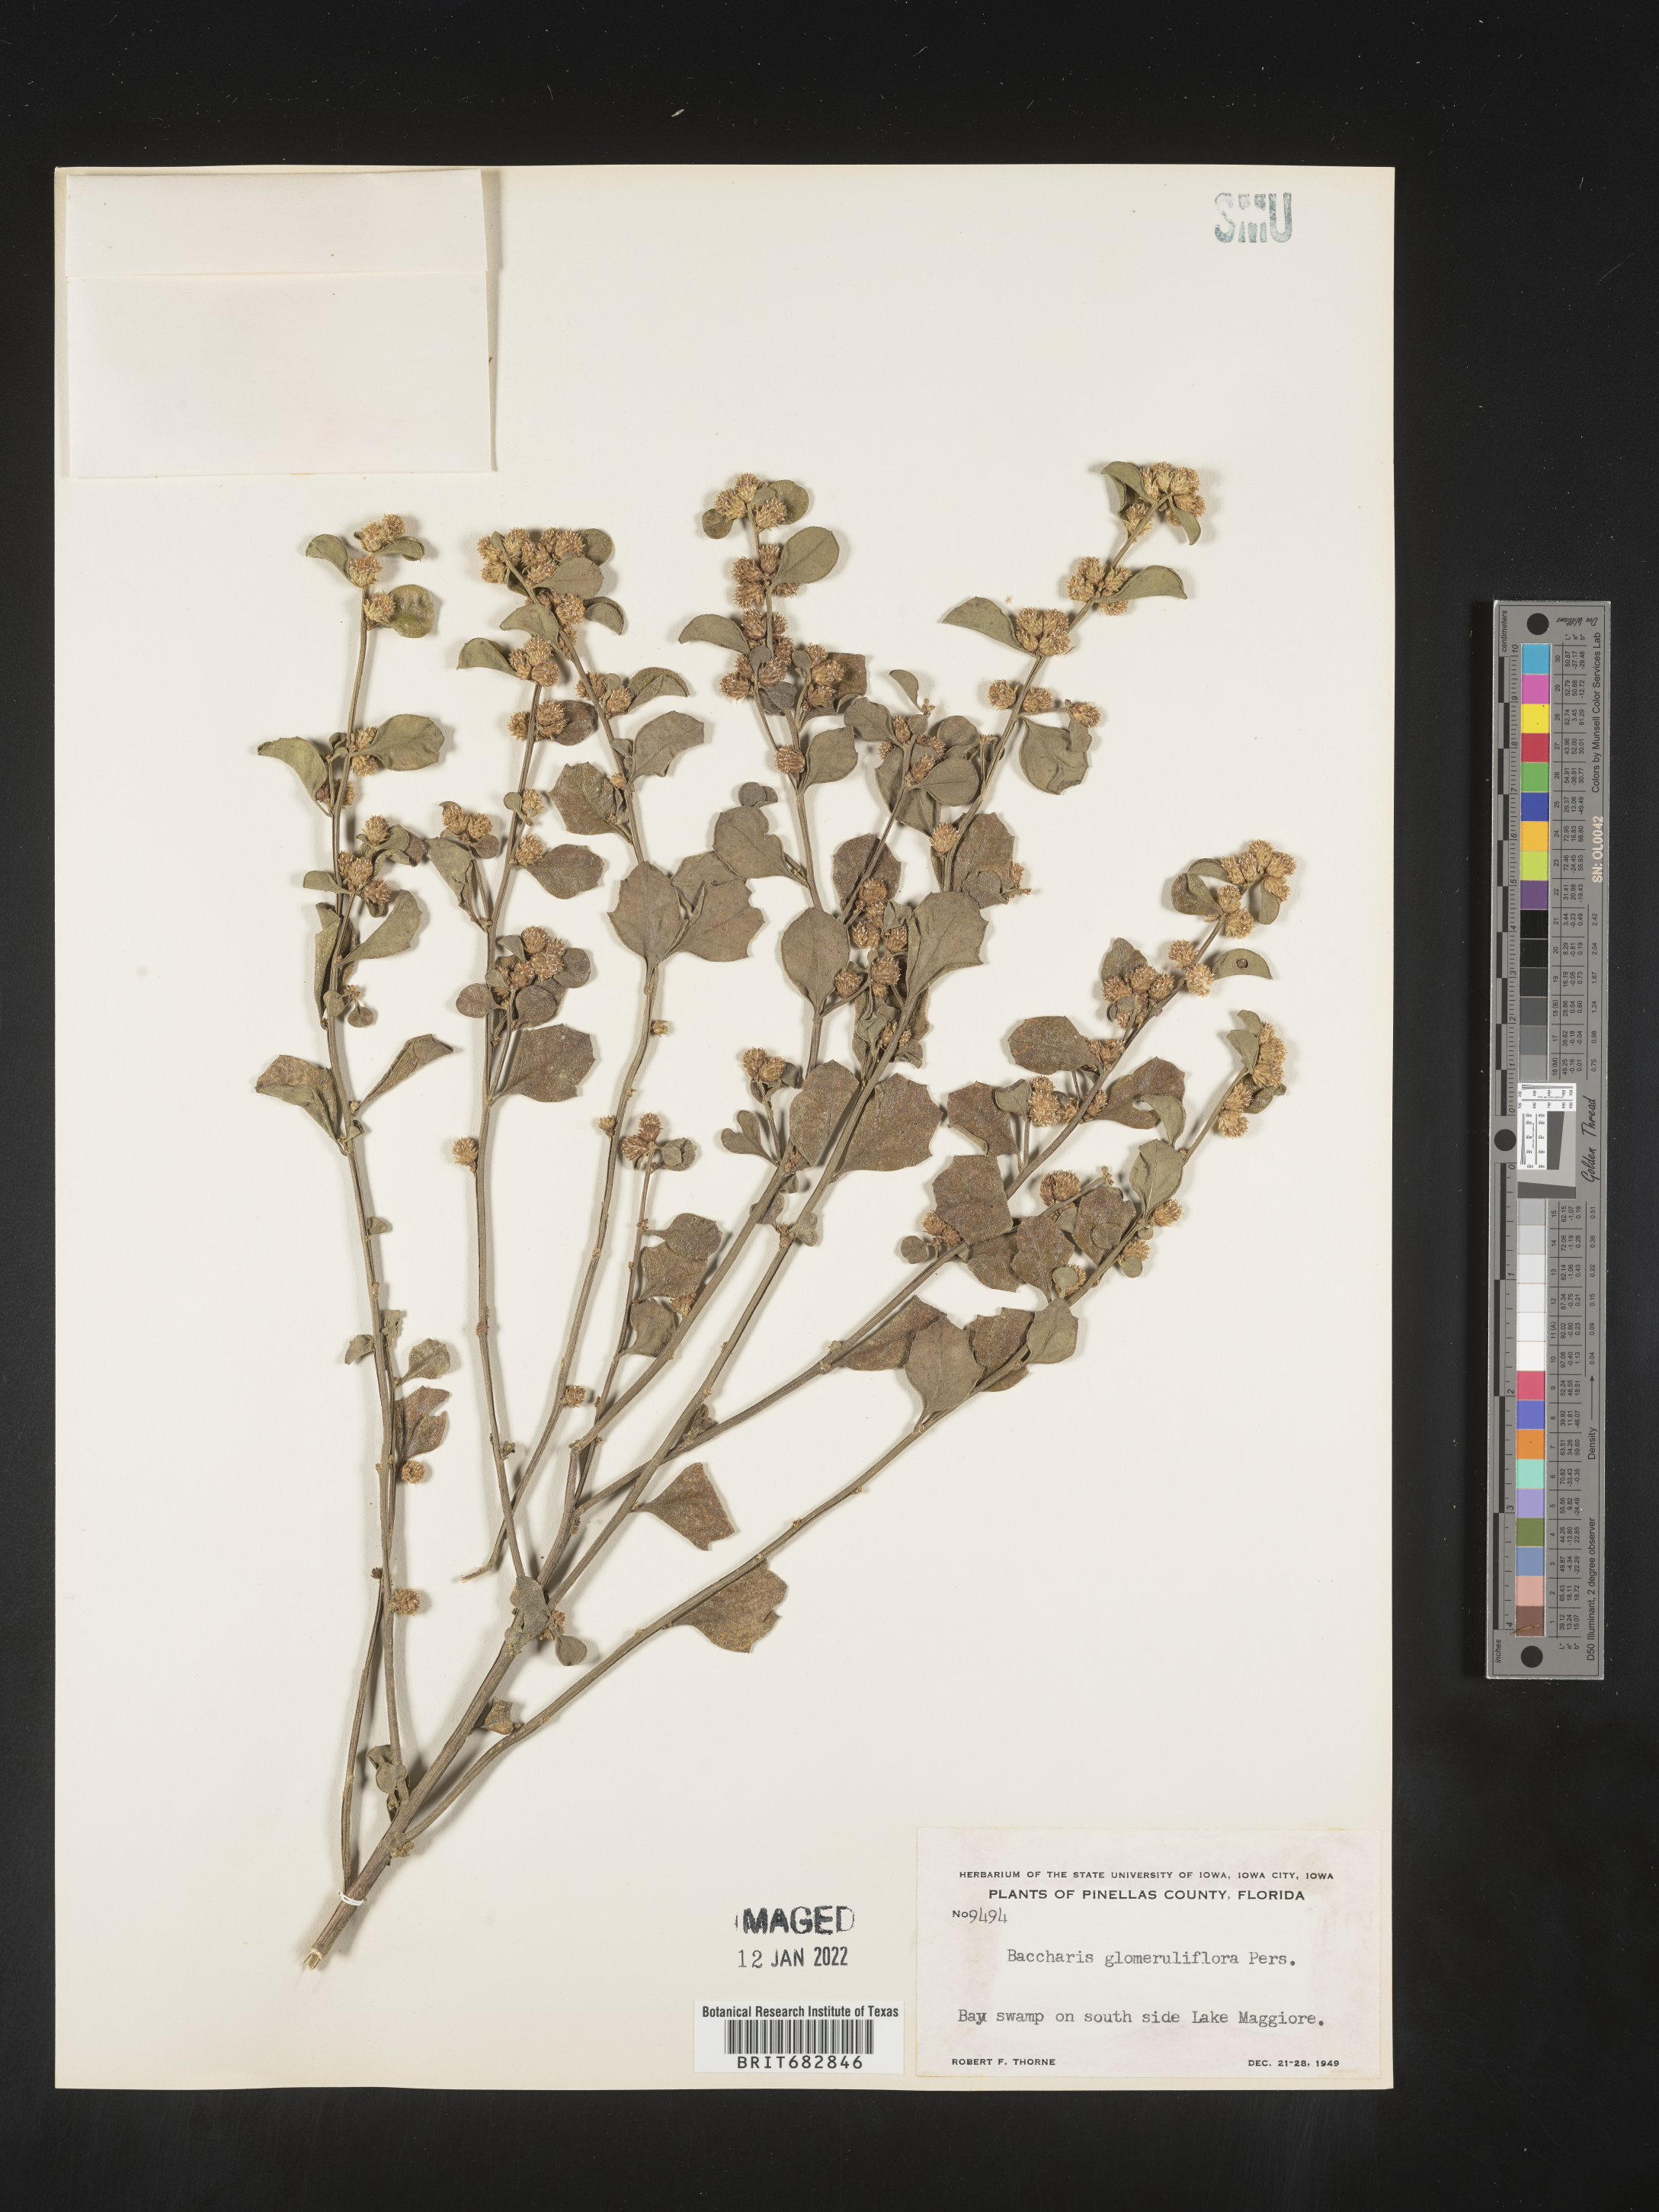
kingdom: Plantae
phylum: Tracheophyta
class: Magnoliopsida
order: Asterales
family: Asteraceae
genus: Baccharis
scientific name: Baccharis glomeruliflora
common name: Silverling groundsel bush
